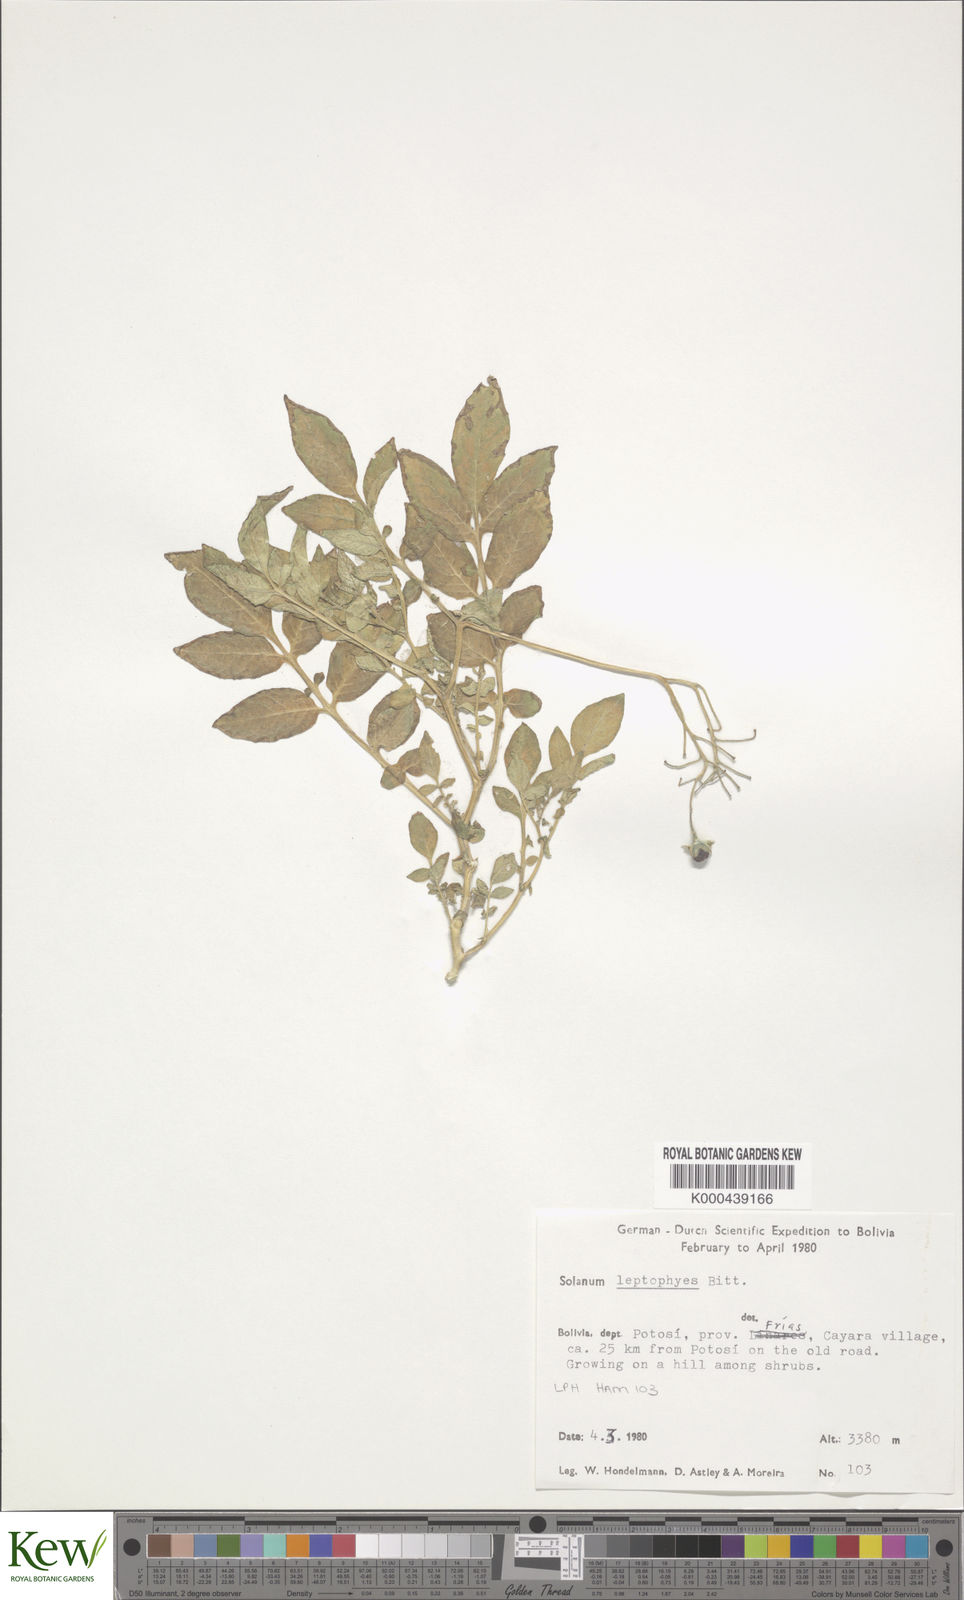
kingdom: Plantae
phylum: Tracheophyta
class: Magnoliopsida
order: Solanales
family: Solanaceae
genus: Solanum
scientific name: Solanum brevicaule
